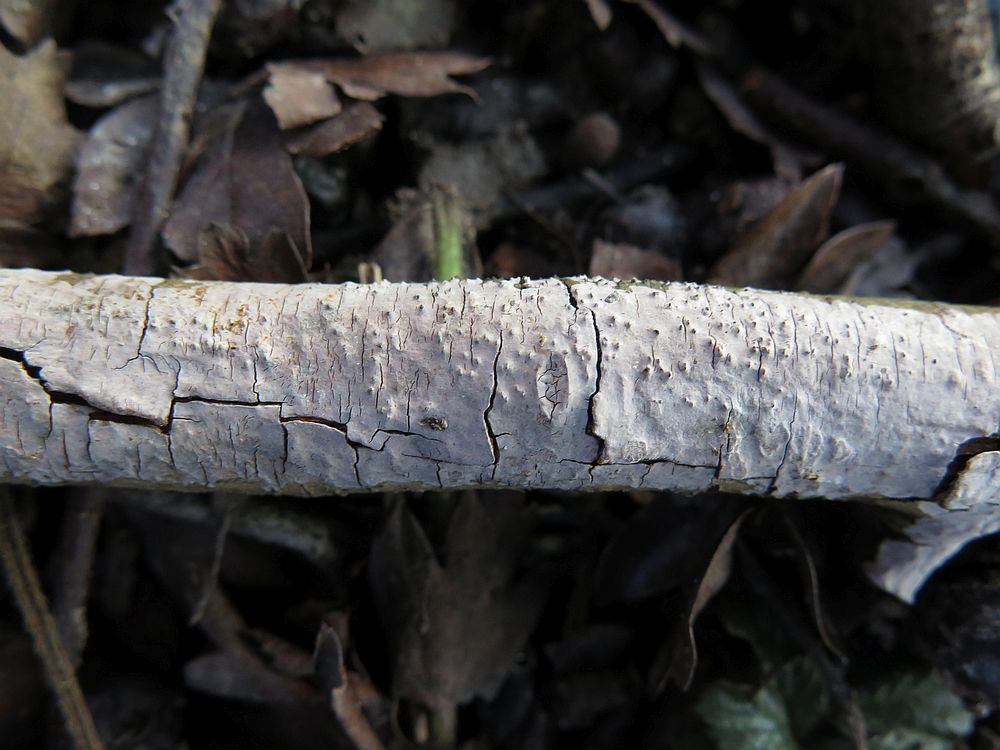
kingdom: Fungi
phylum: Basidiomycota
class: Agaricomycetes
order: Russulales
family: Peniophoraceae
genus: Peniophora
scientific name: Peniophora lycii
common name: grynet voksskind
